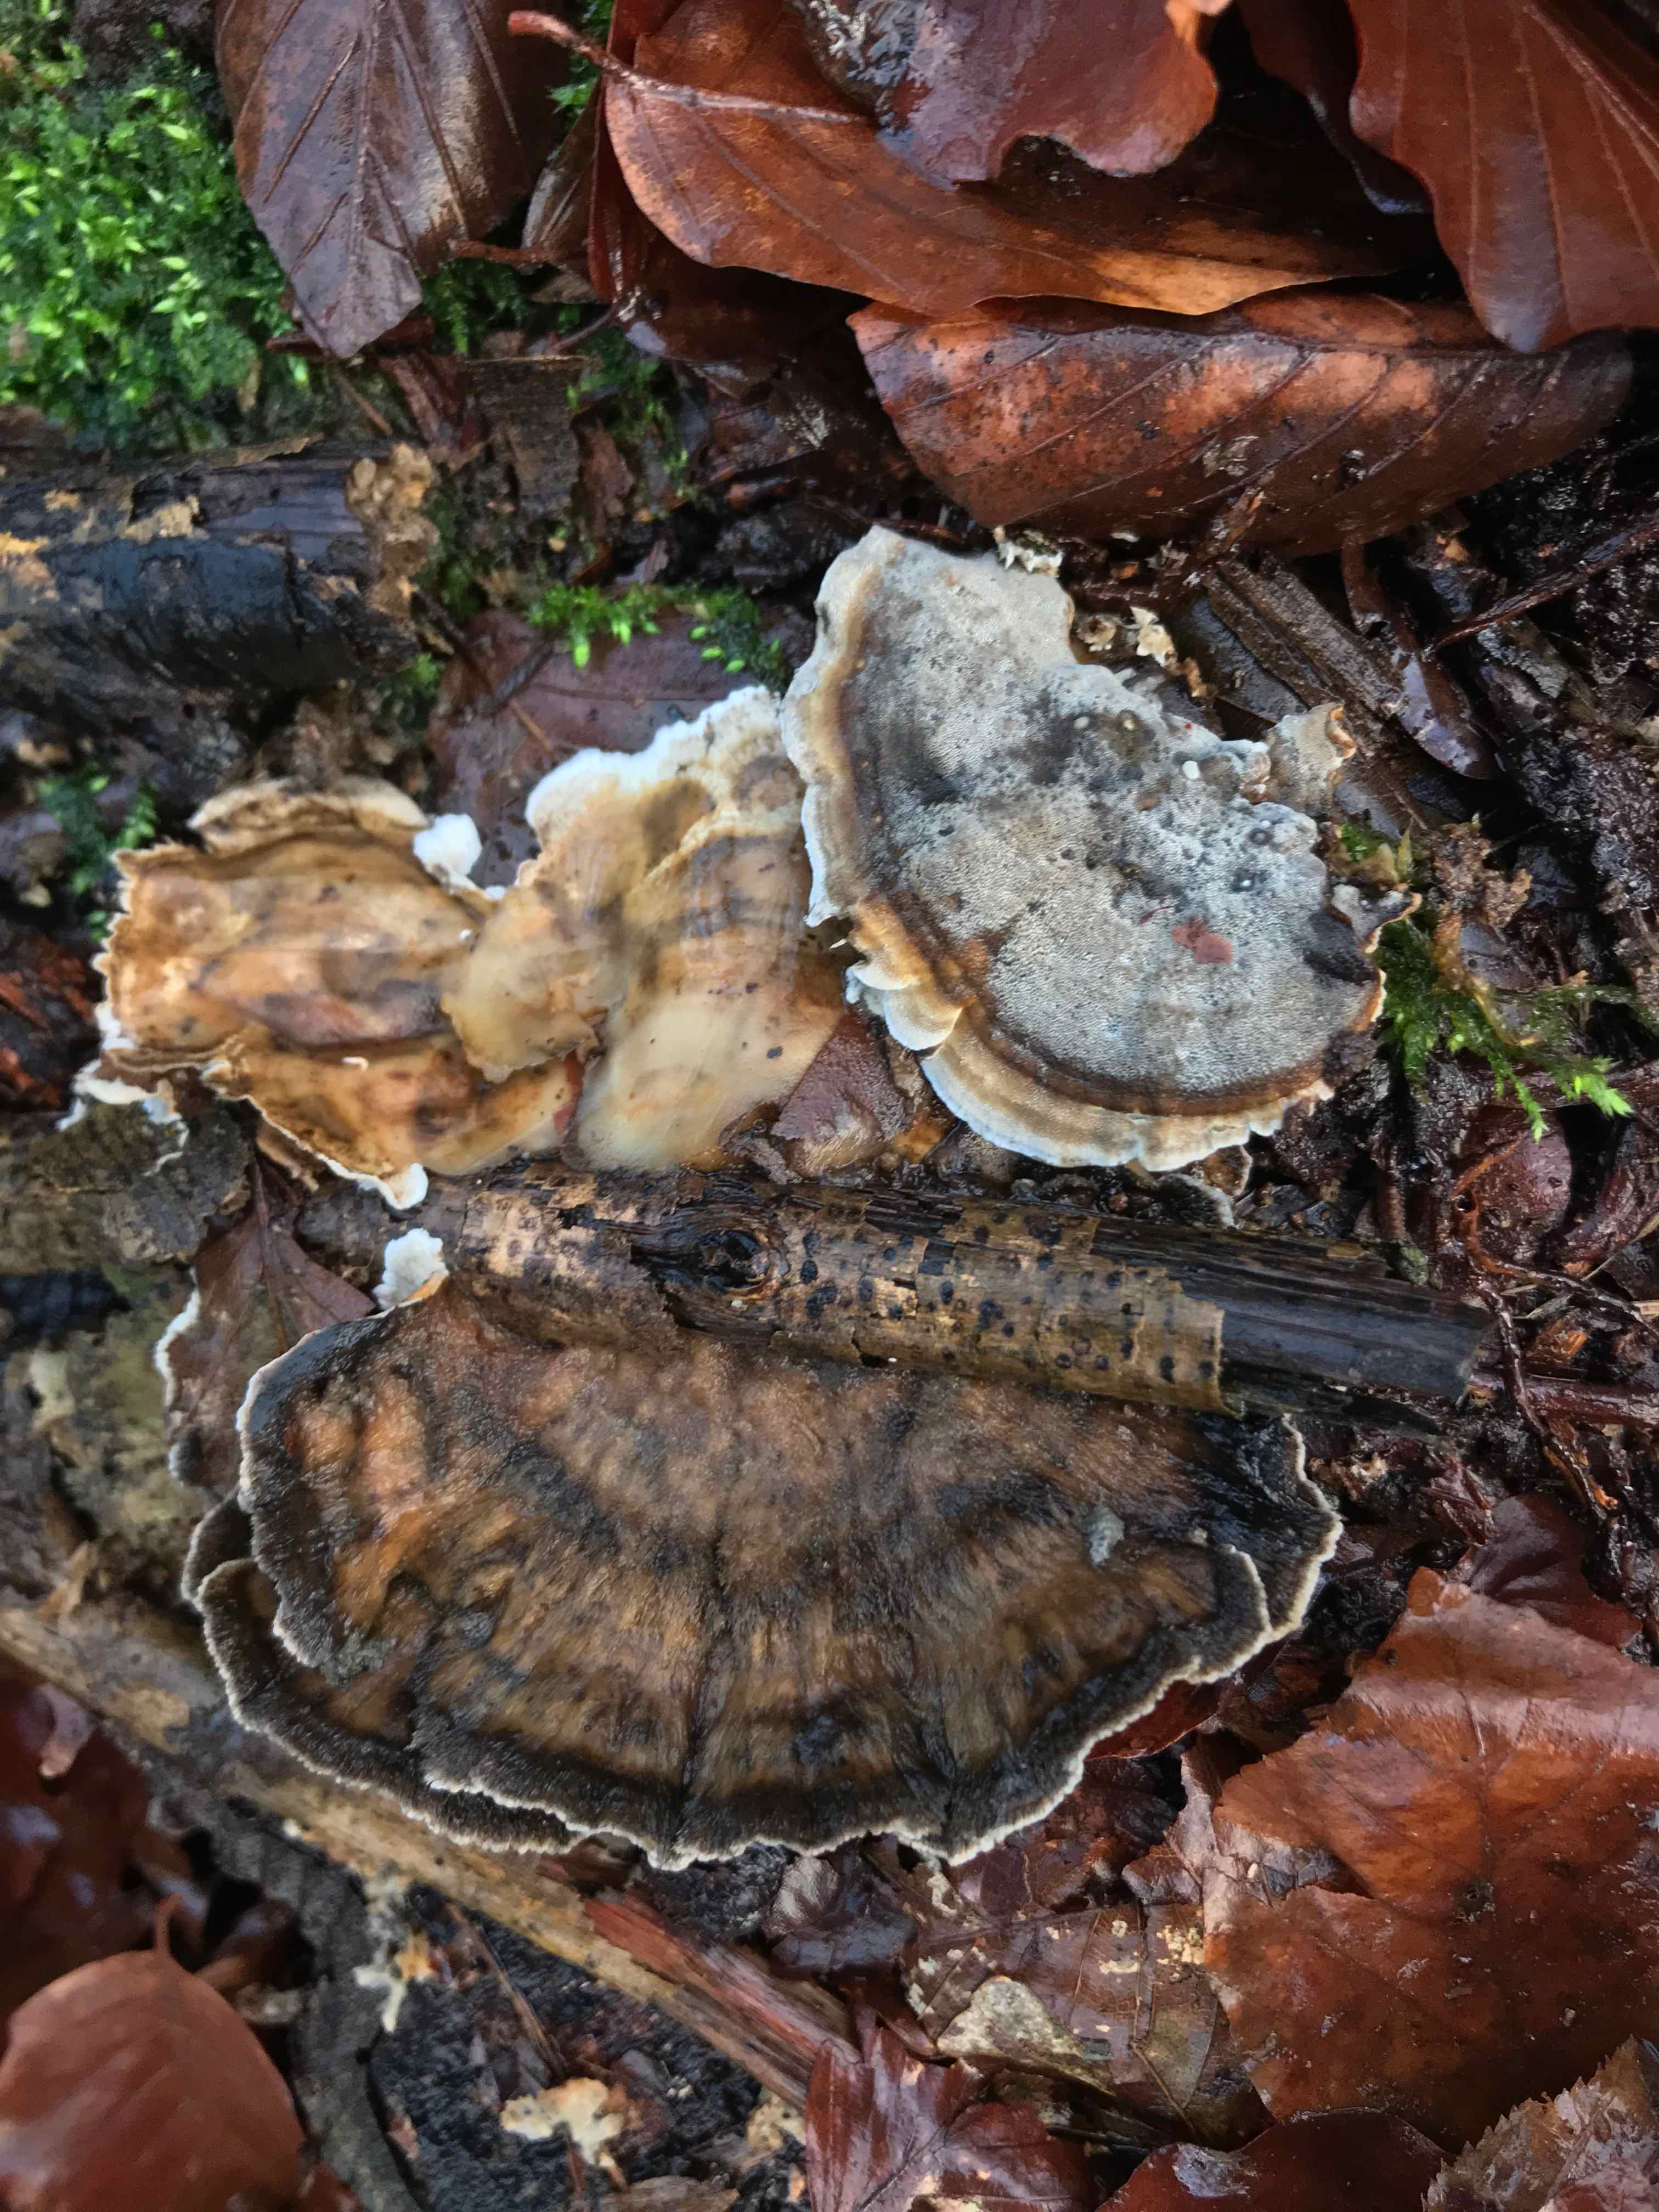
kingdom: Fungi
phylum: Basidiomycota
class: Agaricomycetes
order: Polyporales
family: Phanerochaetaceae
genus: Bjerkandera
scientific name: Bjerkandera adusta
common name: sveden sodporesvamp
